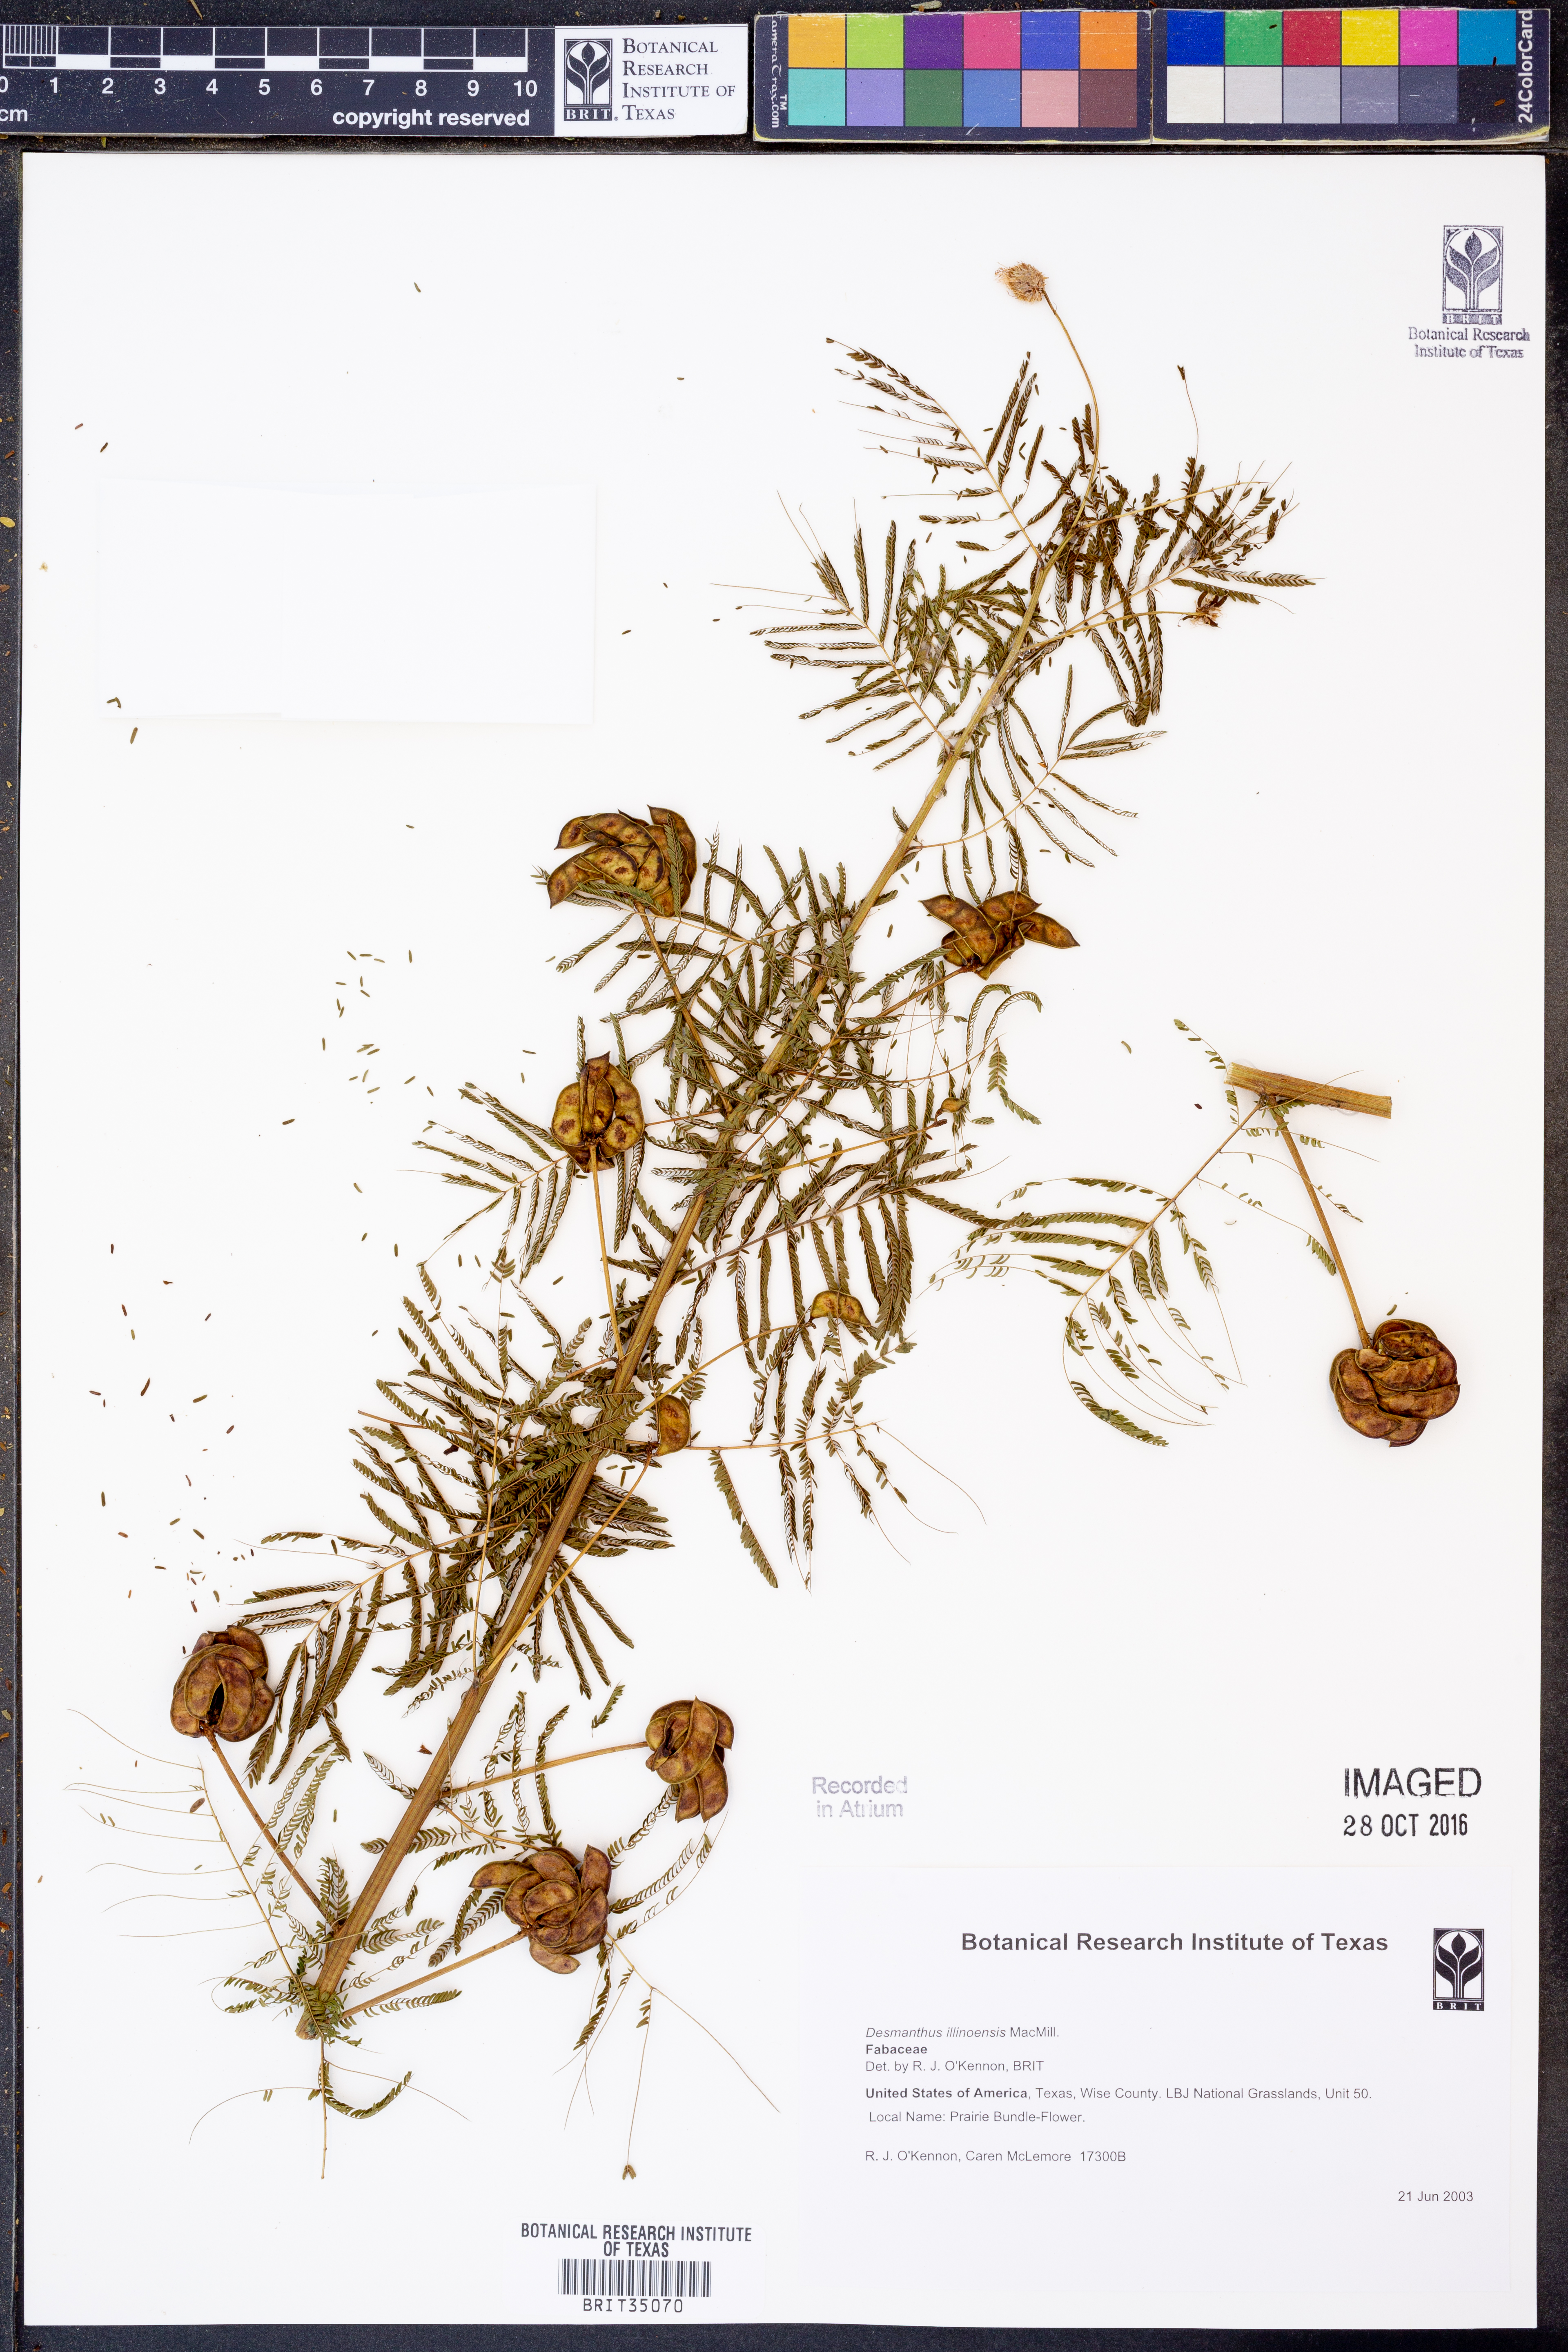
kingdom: Plantae
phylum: Tracheophyta
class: Magnoliopsida
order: Fabales
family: Fabaceae
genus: Desmanthus
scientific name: Desmanthus illinoensis
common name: Illinois bundle-flower
